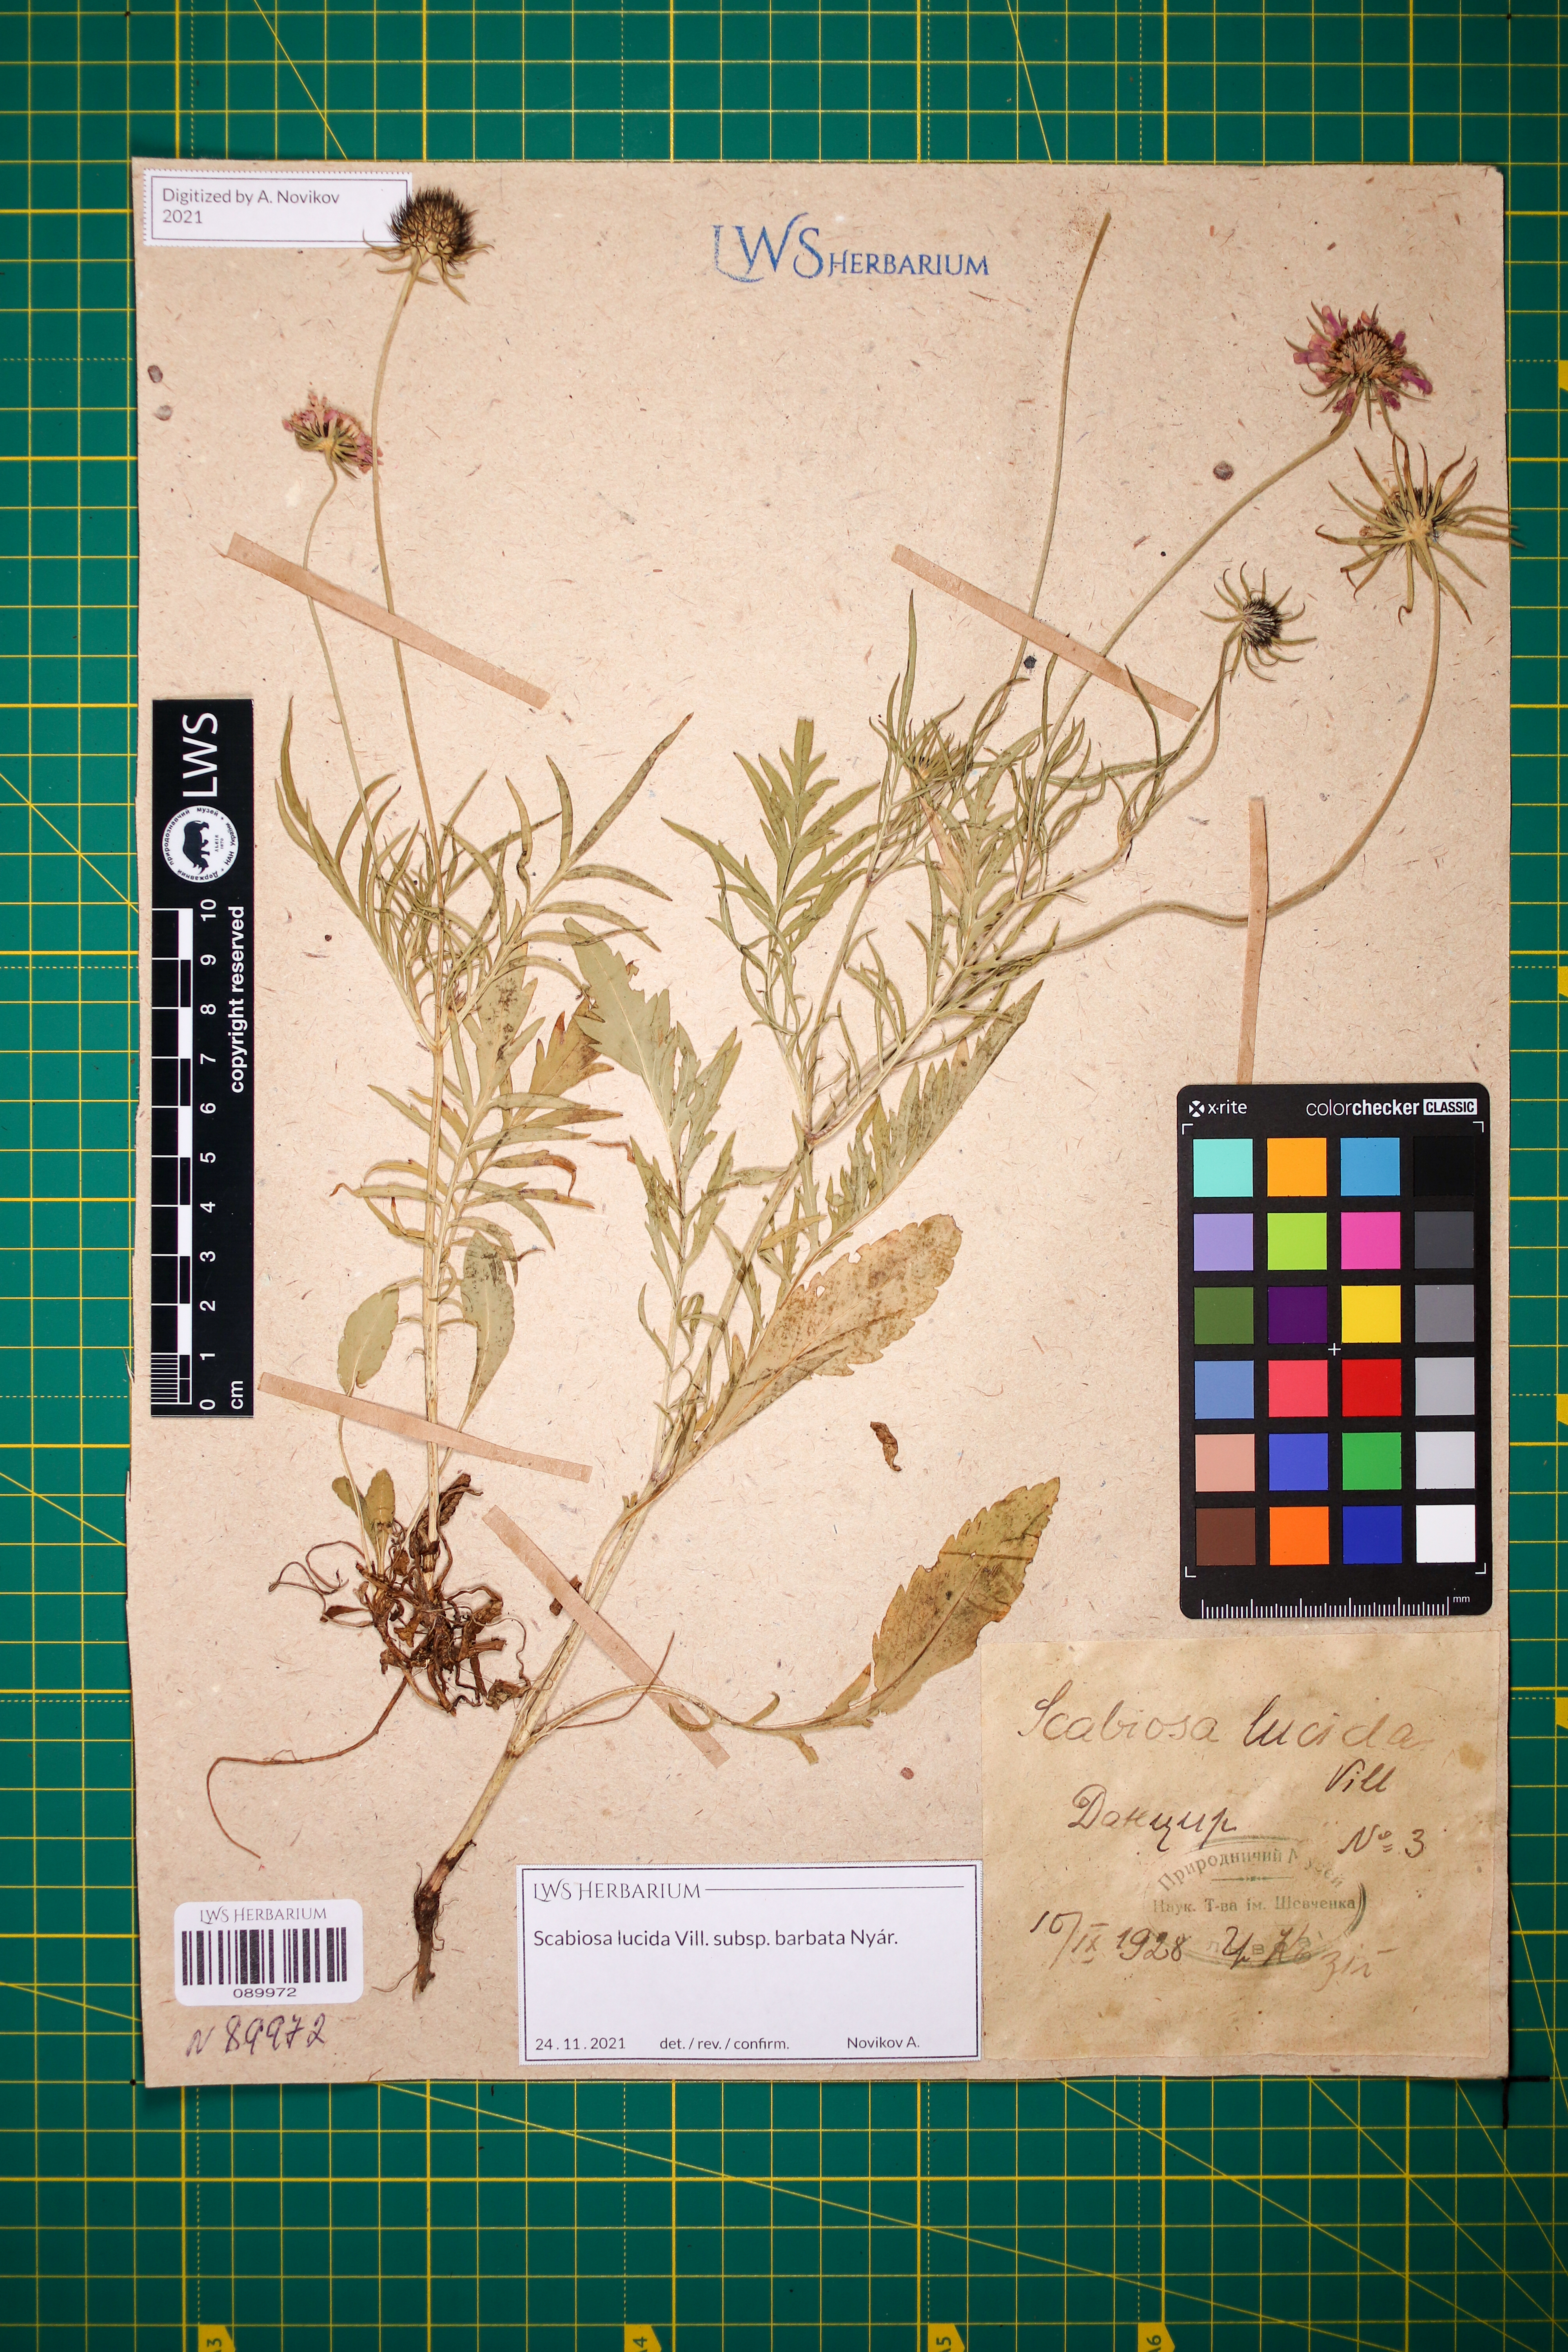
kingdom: Plantae
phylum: Tracheophyta
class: Magnoliopsida
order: Dipsacales
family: Caprifoliaceae
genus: Scabiosa
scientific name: Scabiosa lucida
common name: Shining scabious
